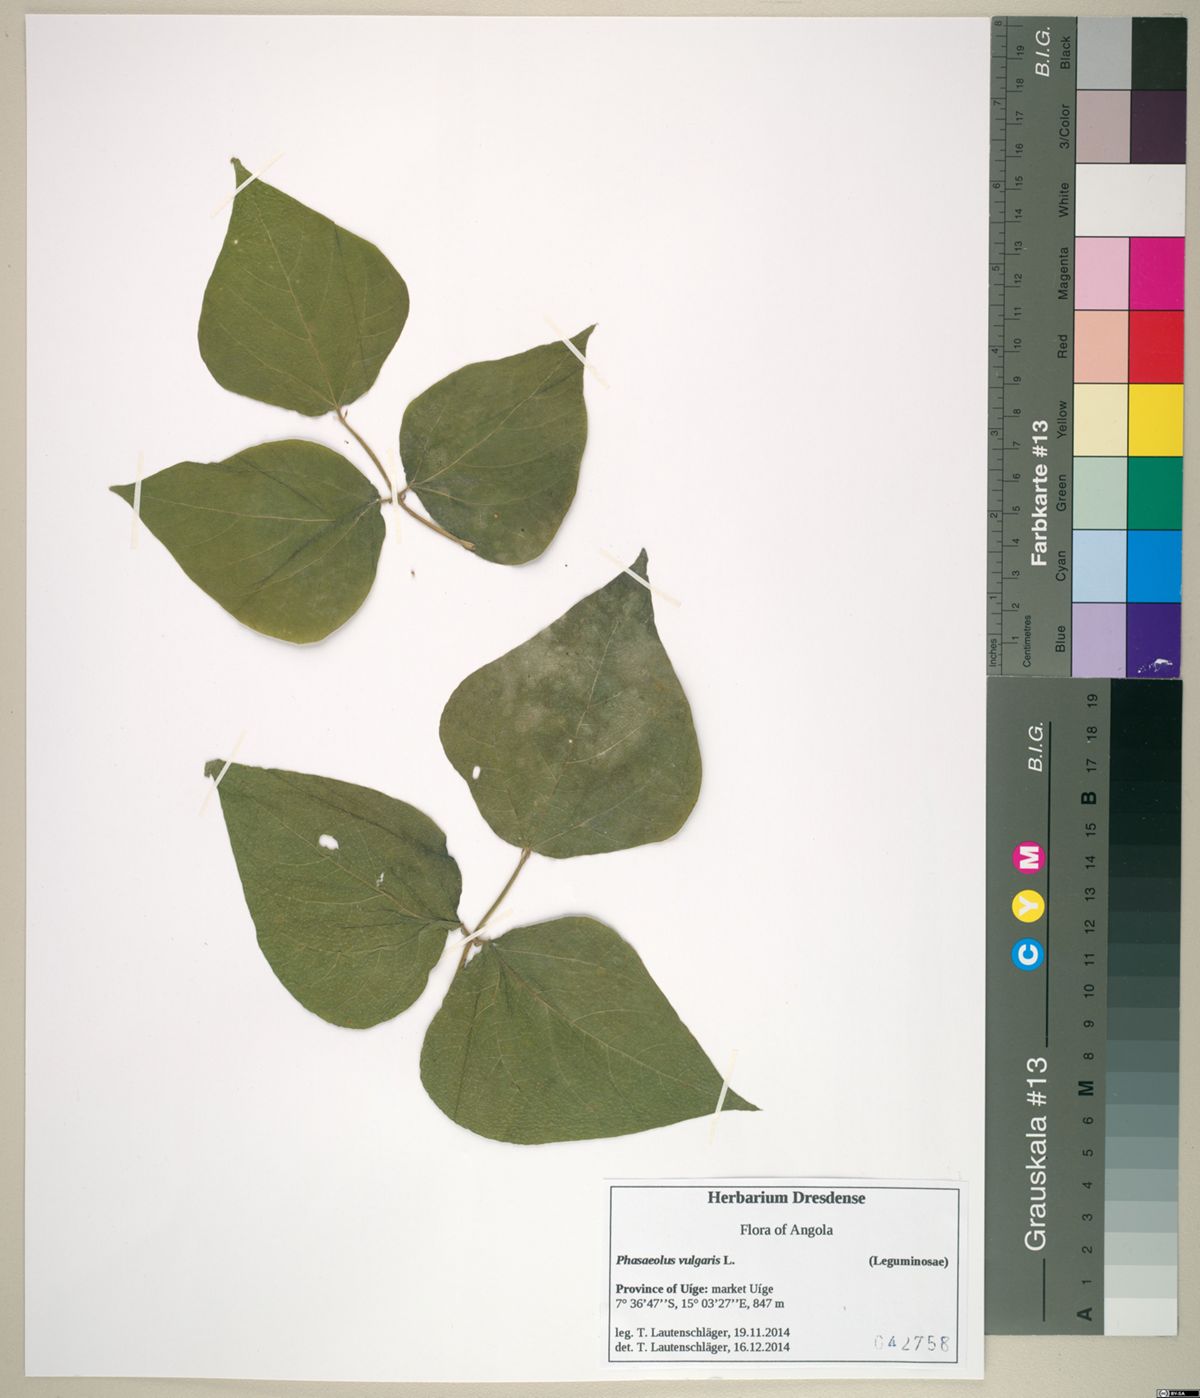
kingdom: Plantae
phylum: Tracheophyta
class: Magnoliopsida
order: Fabales
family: Fabaceae
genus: Phaseolus
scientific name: Phaseolus vulgaris
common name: Bean
